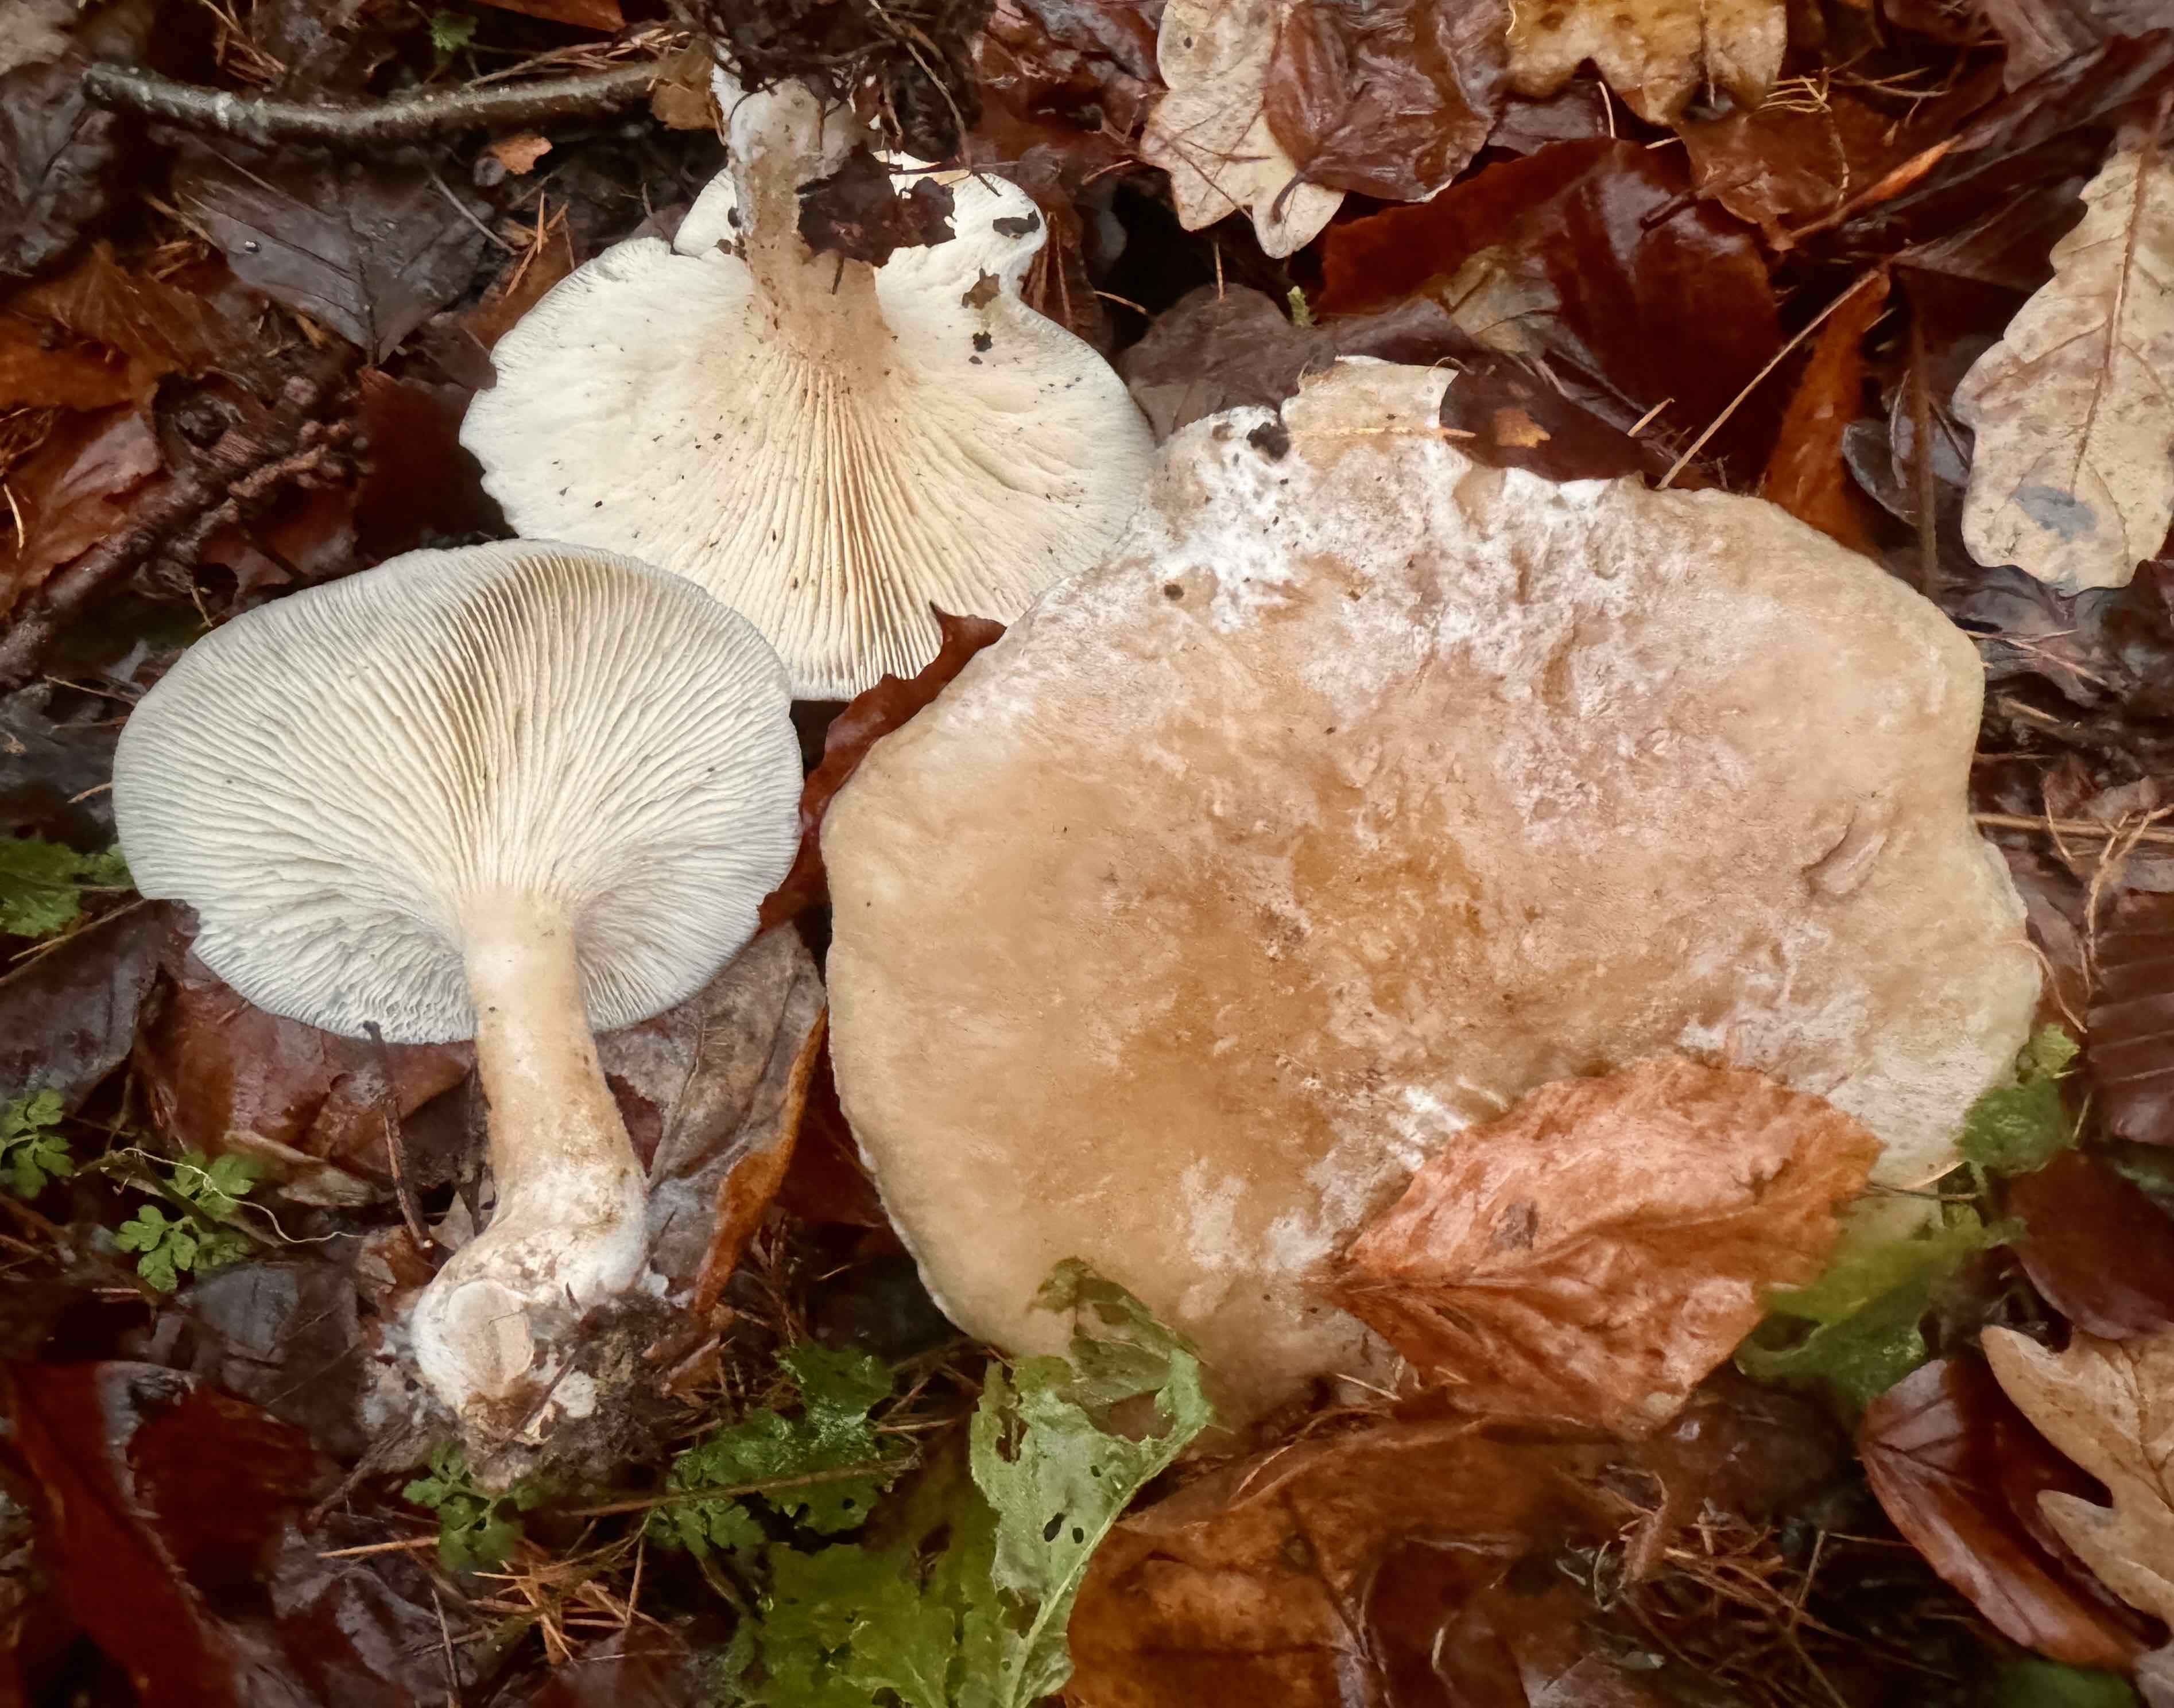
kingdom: Fungi
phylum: Basidiomycota
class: Agaricomycetes
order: Agaricales
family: Tricholomataceae
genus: Clitocybe
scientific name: Clitocybe nebularis
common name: tåge-tragthat
